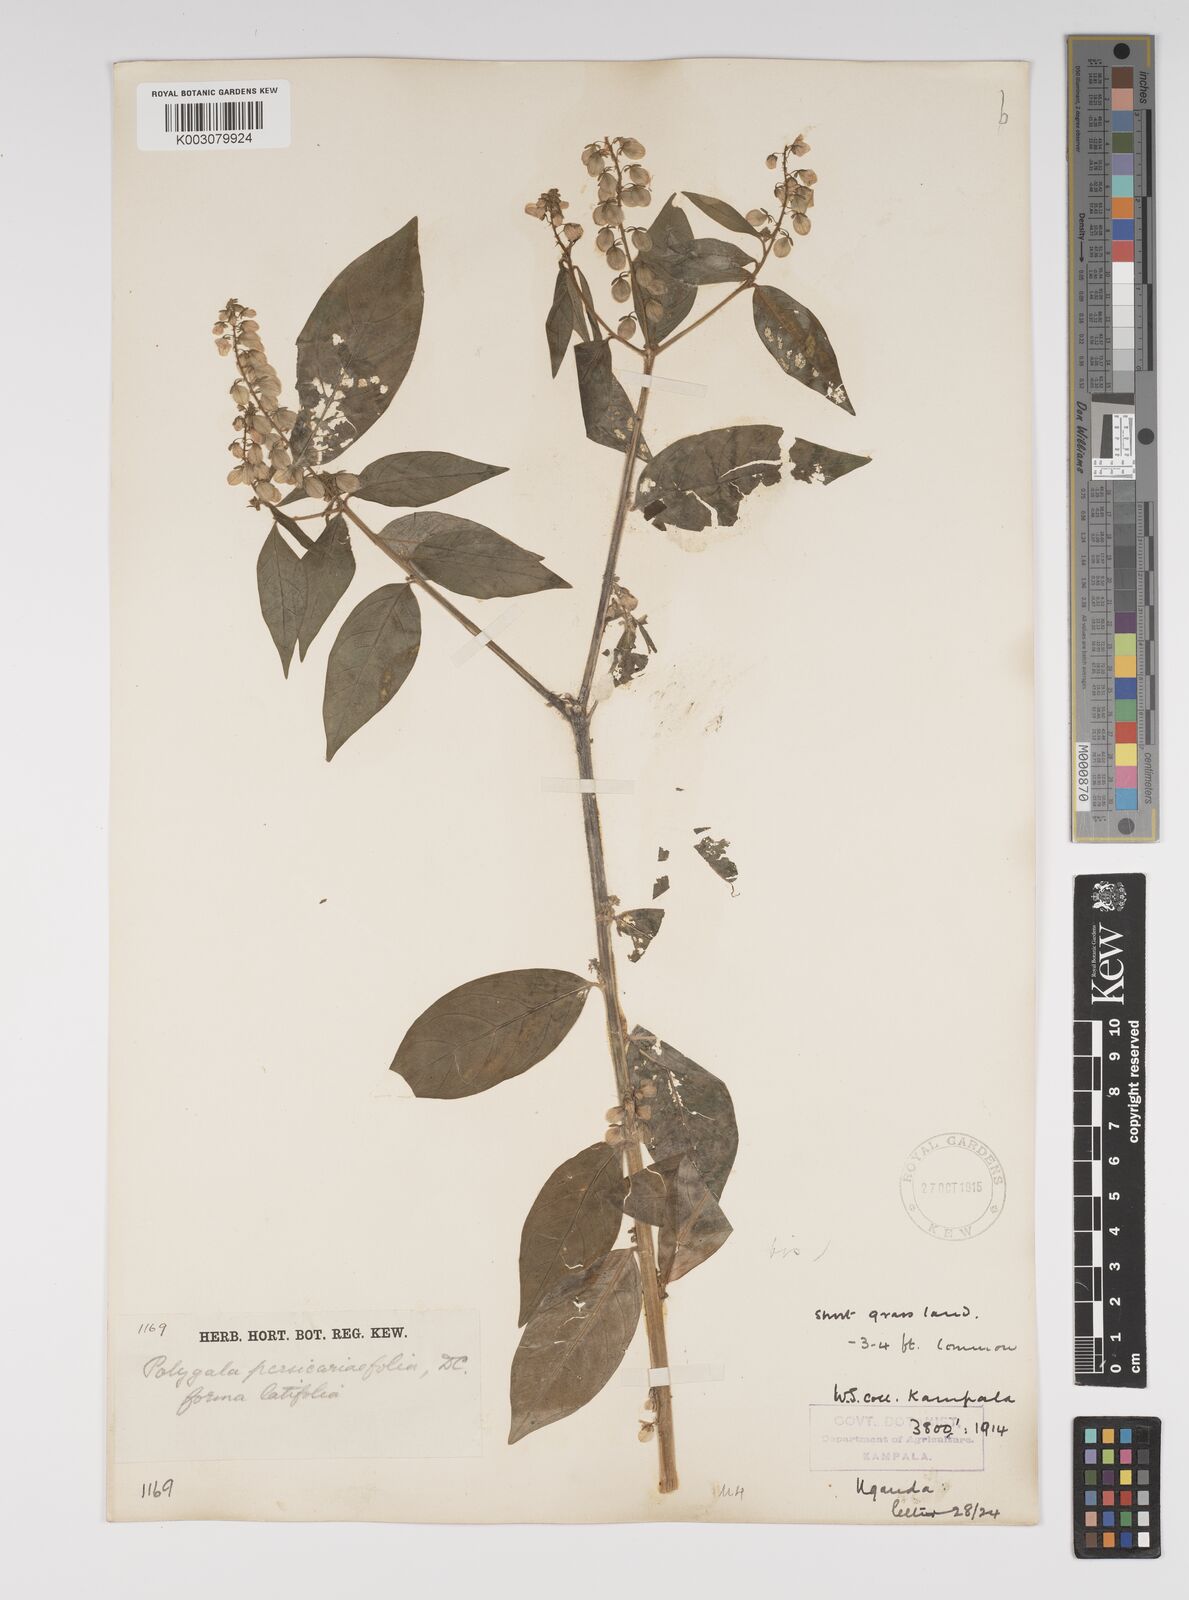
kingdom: Plantae
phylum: Tracheophyta
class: Magnoliopsida
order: Fabales
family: Polygalaceae
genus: Polygala
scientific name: Polygala persicariifolia
